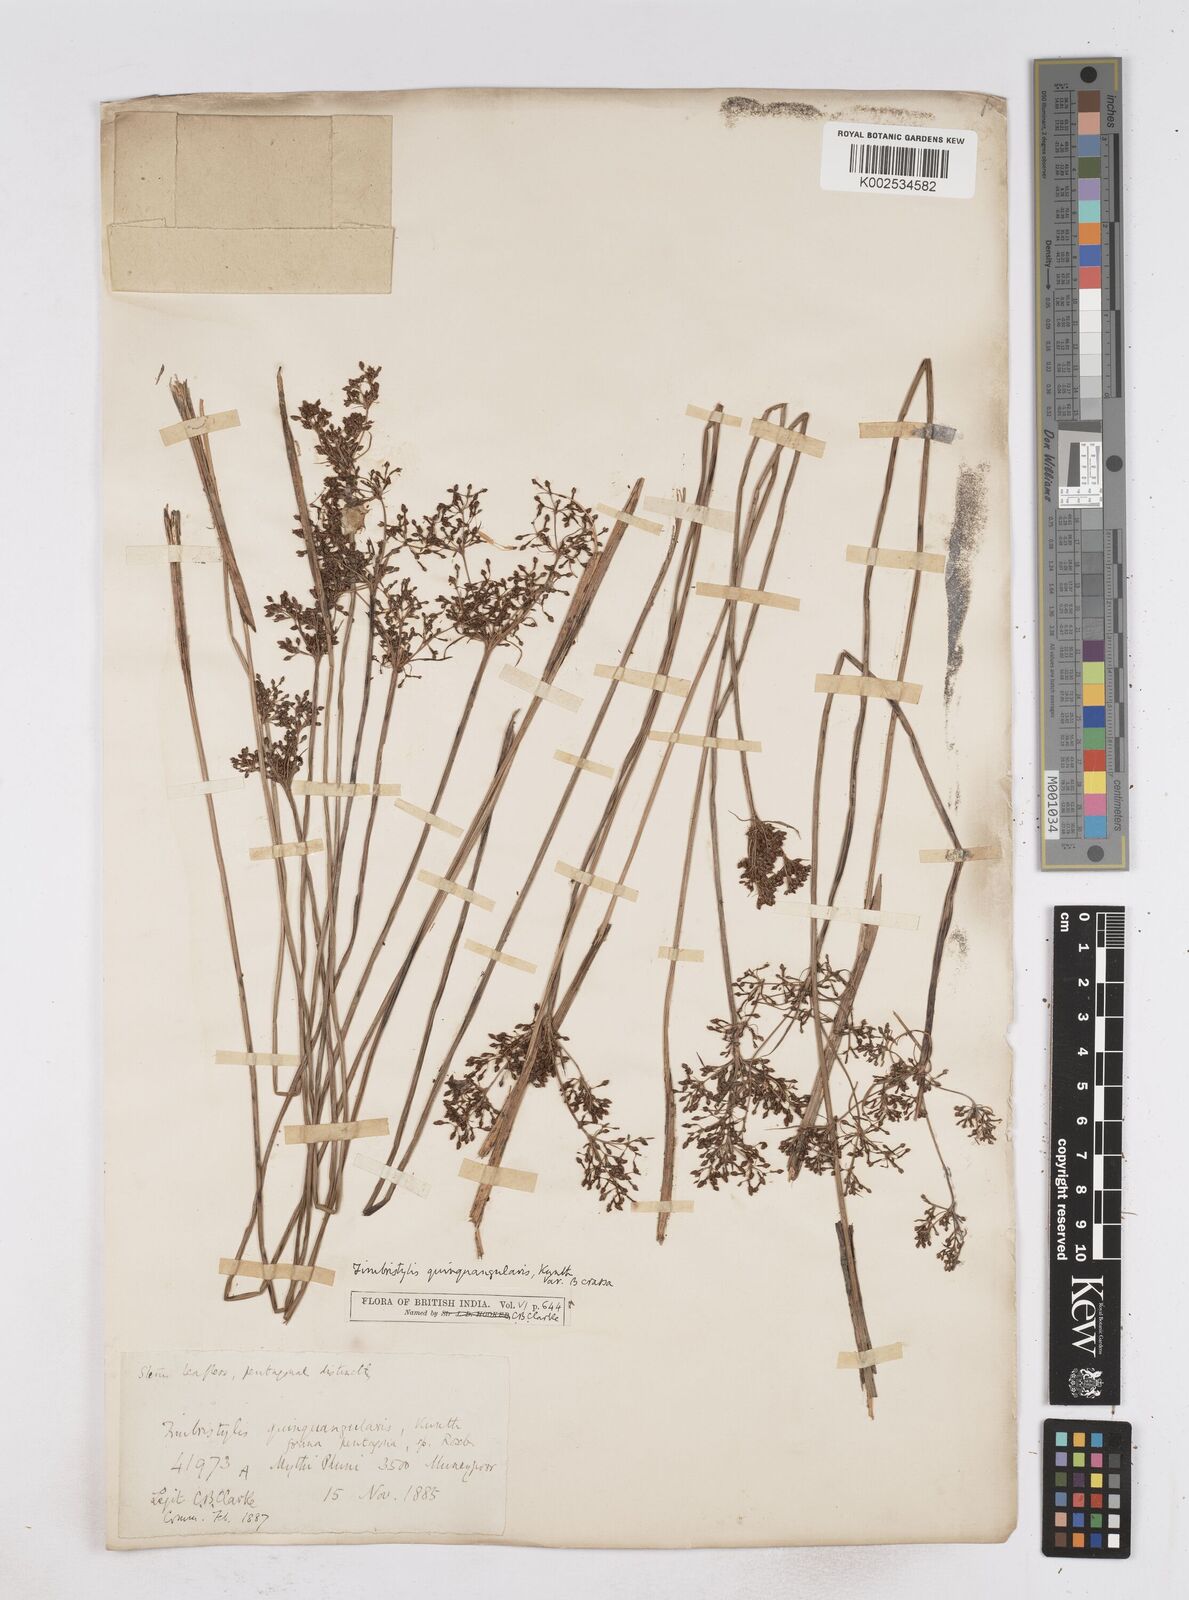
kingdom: Plantae
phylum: Tracheophyta
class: Liliopsida
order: Poales
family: Cyperaceae
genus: Fimbristylis
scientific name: Fimbristylis aphylla
